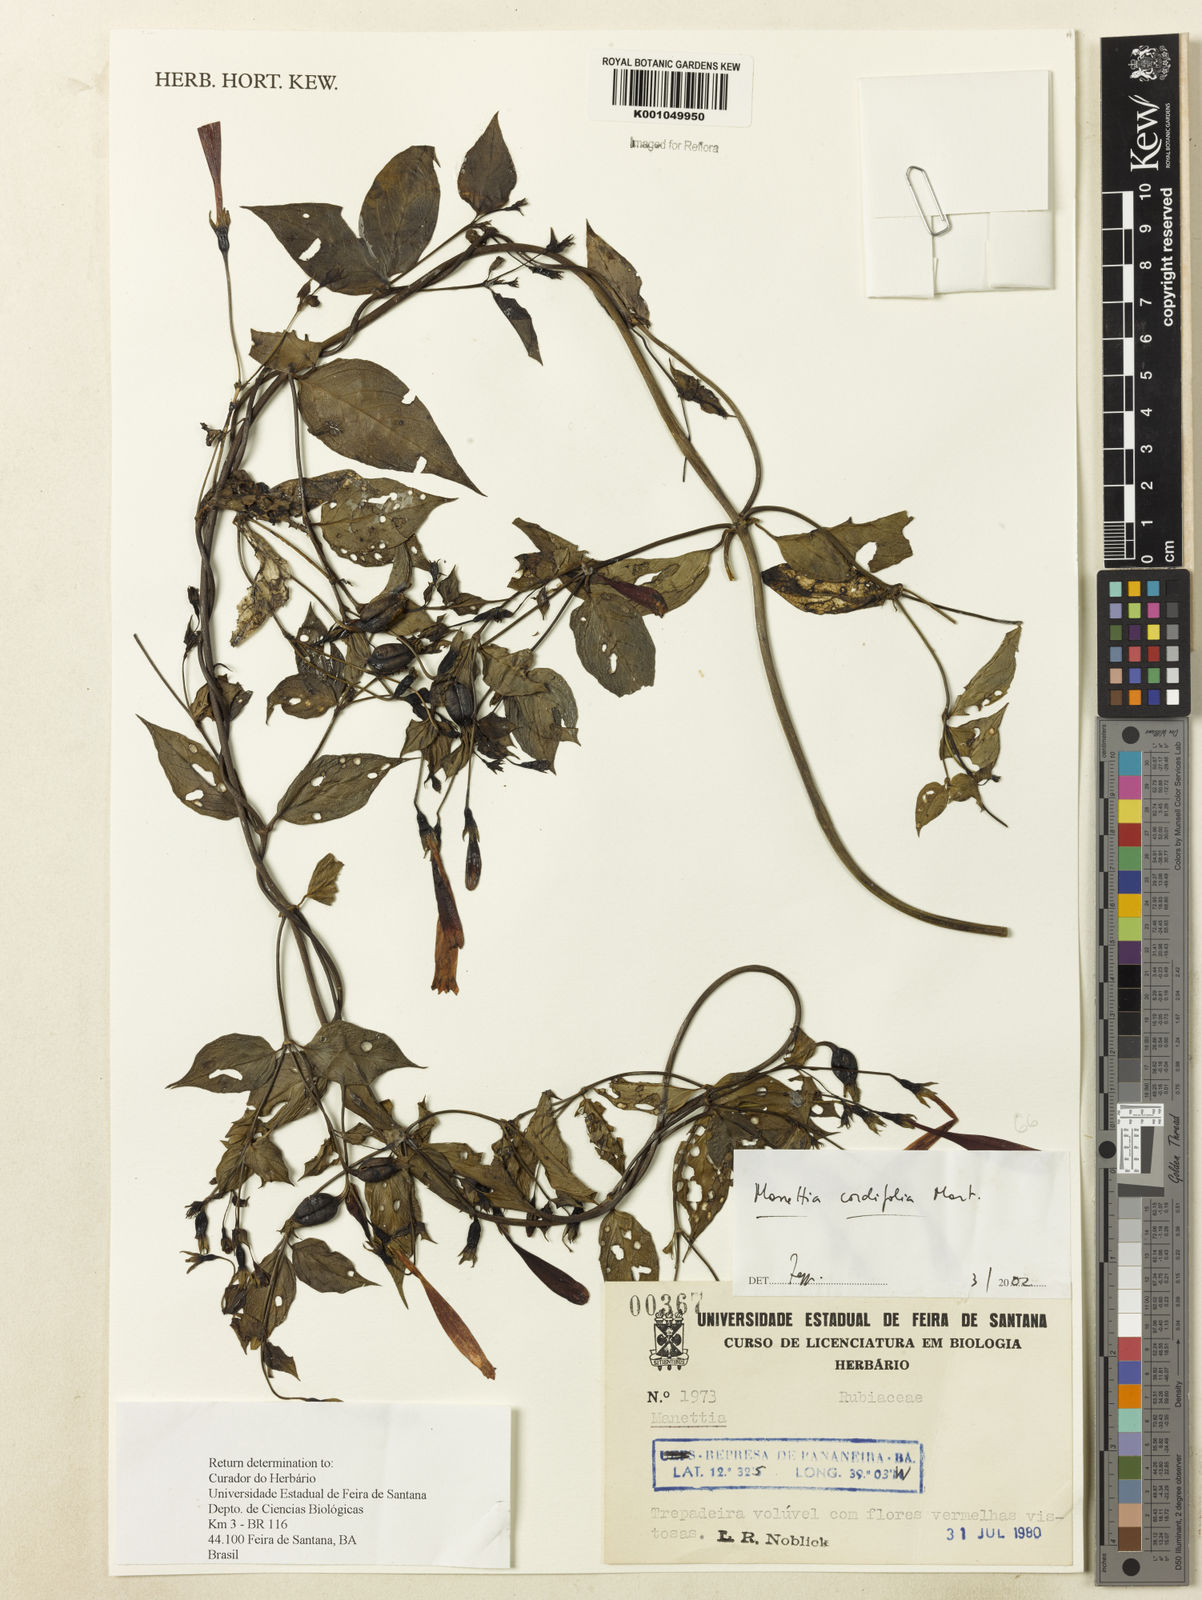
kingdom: Plantae
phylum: Tracheophyta
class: Magnoliopsida
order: Gentianales
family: Rubiaceae
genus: Manettia
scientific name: Manettia cordifolia
